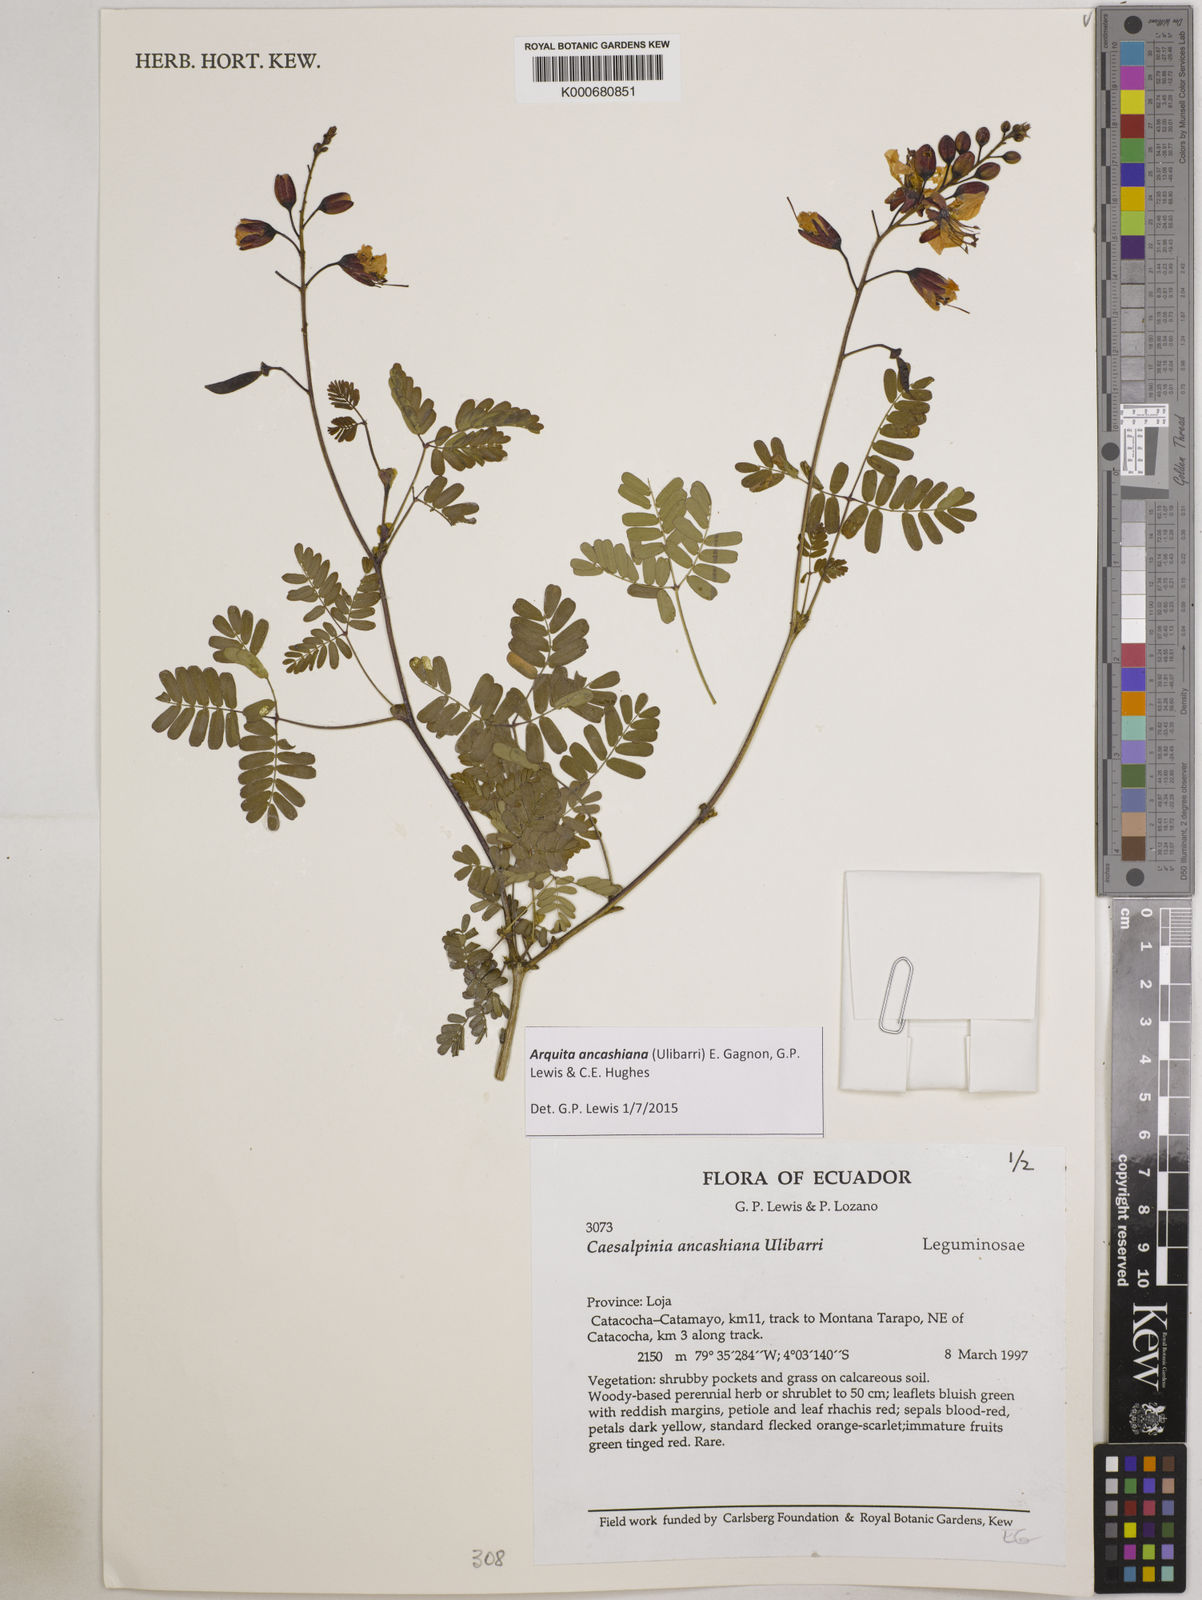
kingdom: Plantae
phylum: Tracheophyta
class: Magnoliopsida
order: Fabales
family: Fabaceae
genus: Arquita
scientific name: Arquita ancashiana
